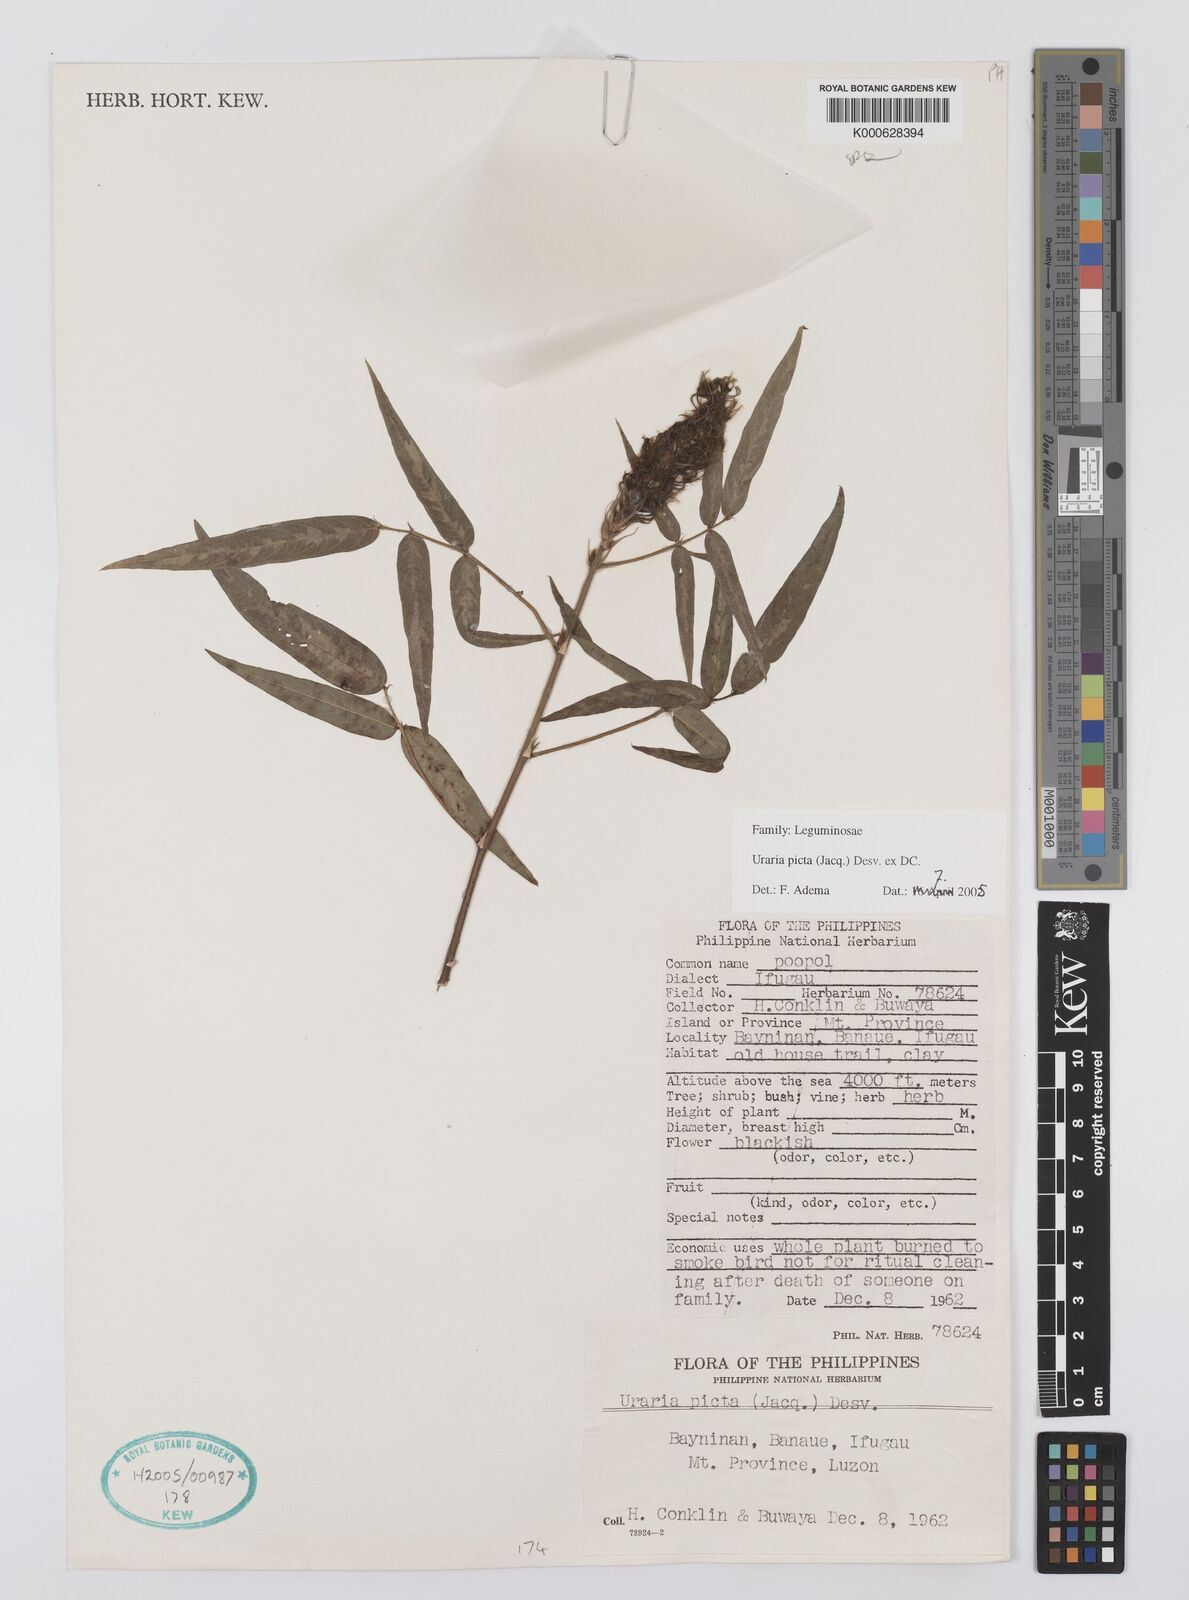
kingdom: Plantae
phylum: Tracheophyta
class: Magnoliopsida
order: Fabales
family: Fabaceae
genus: Uraria
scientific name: Uraria picta
